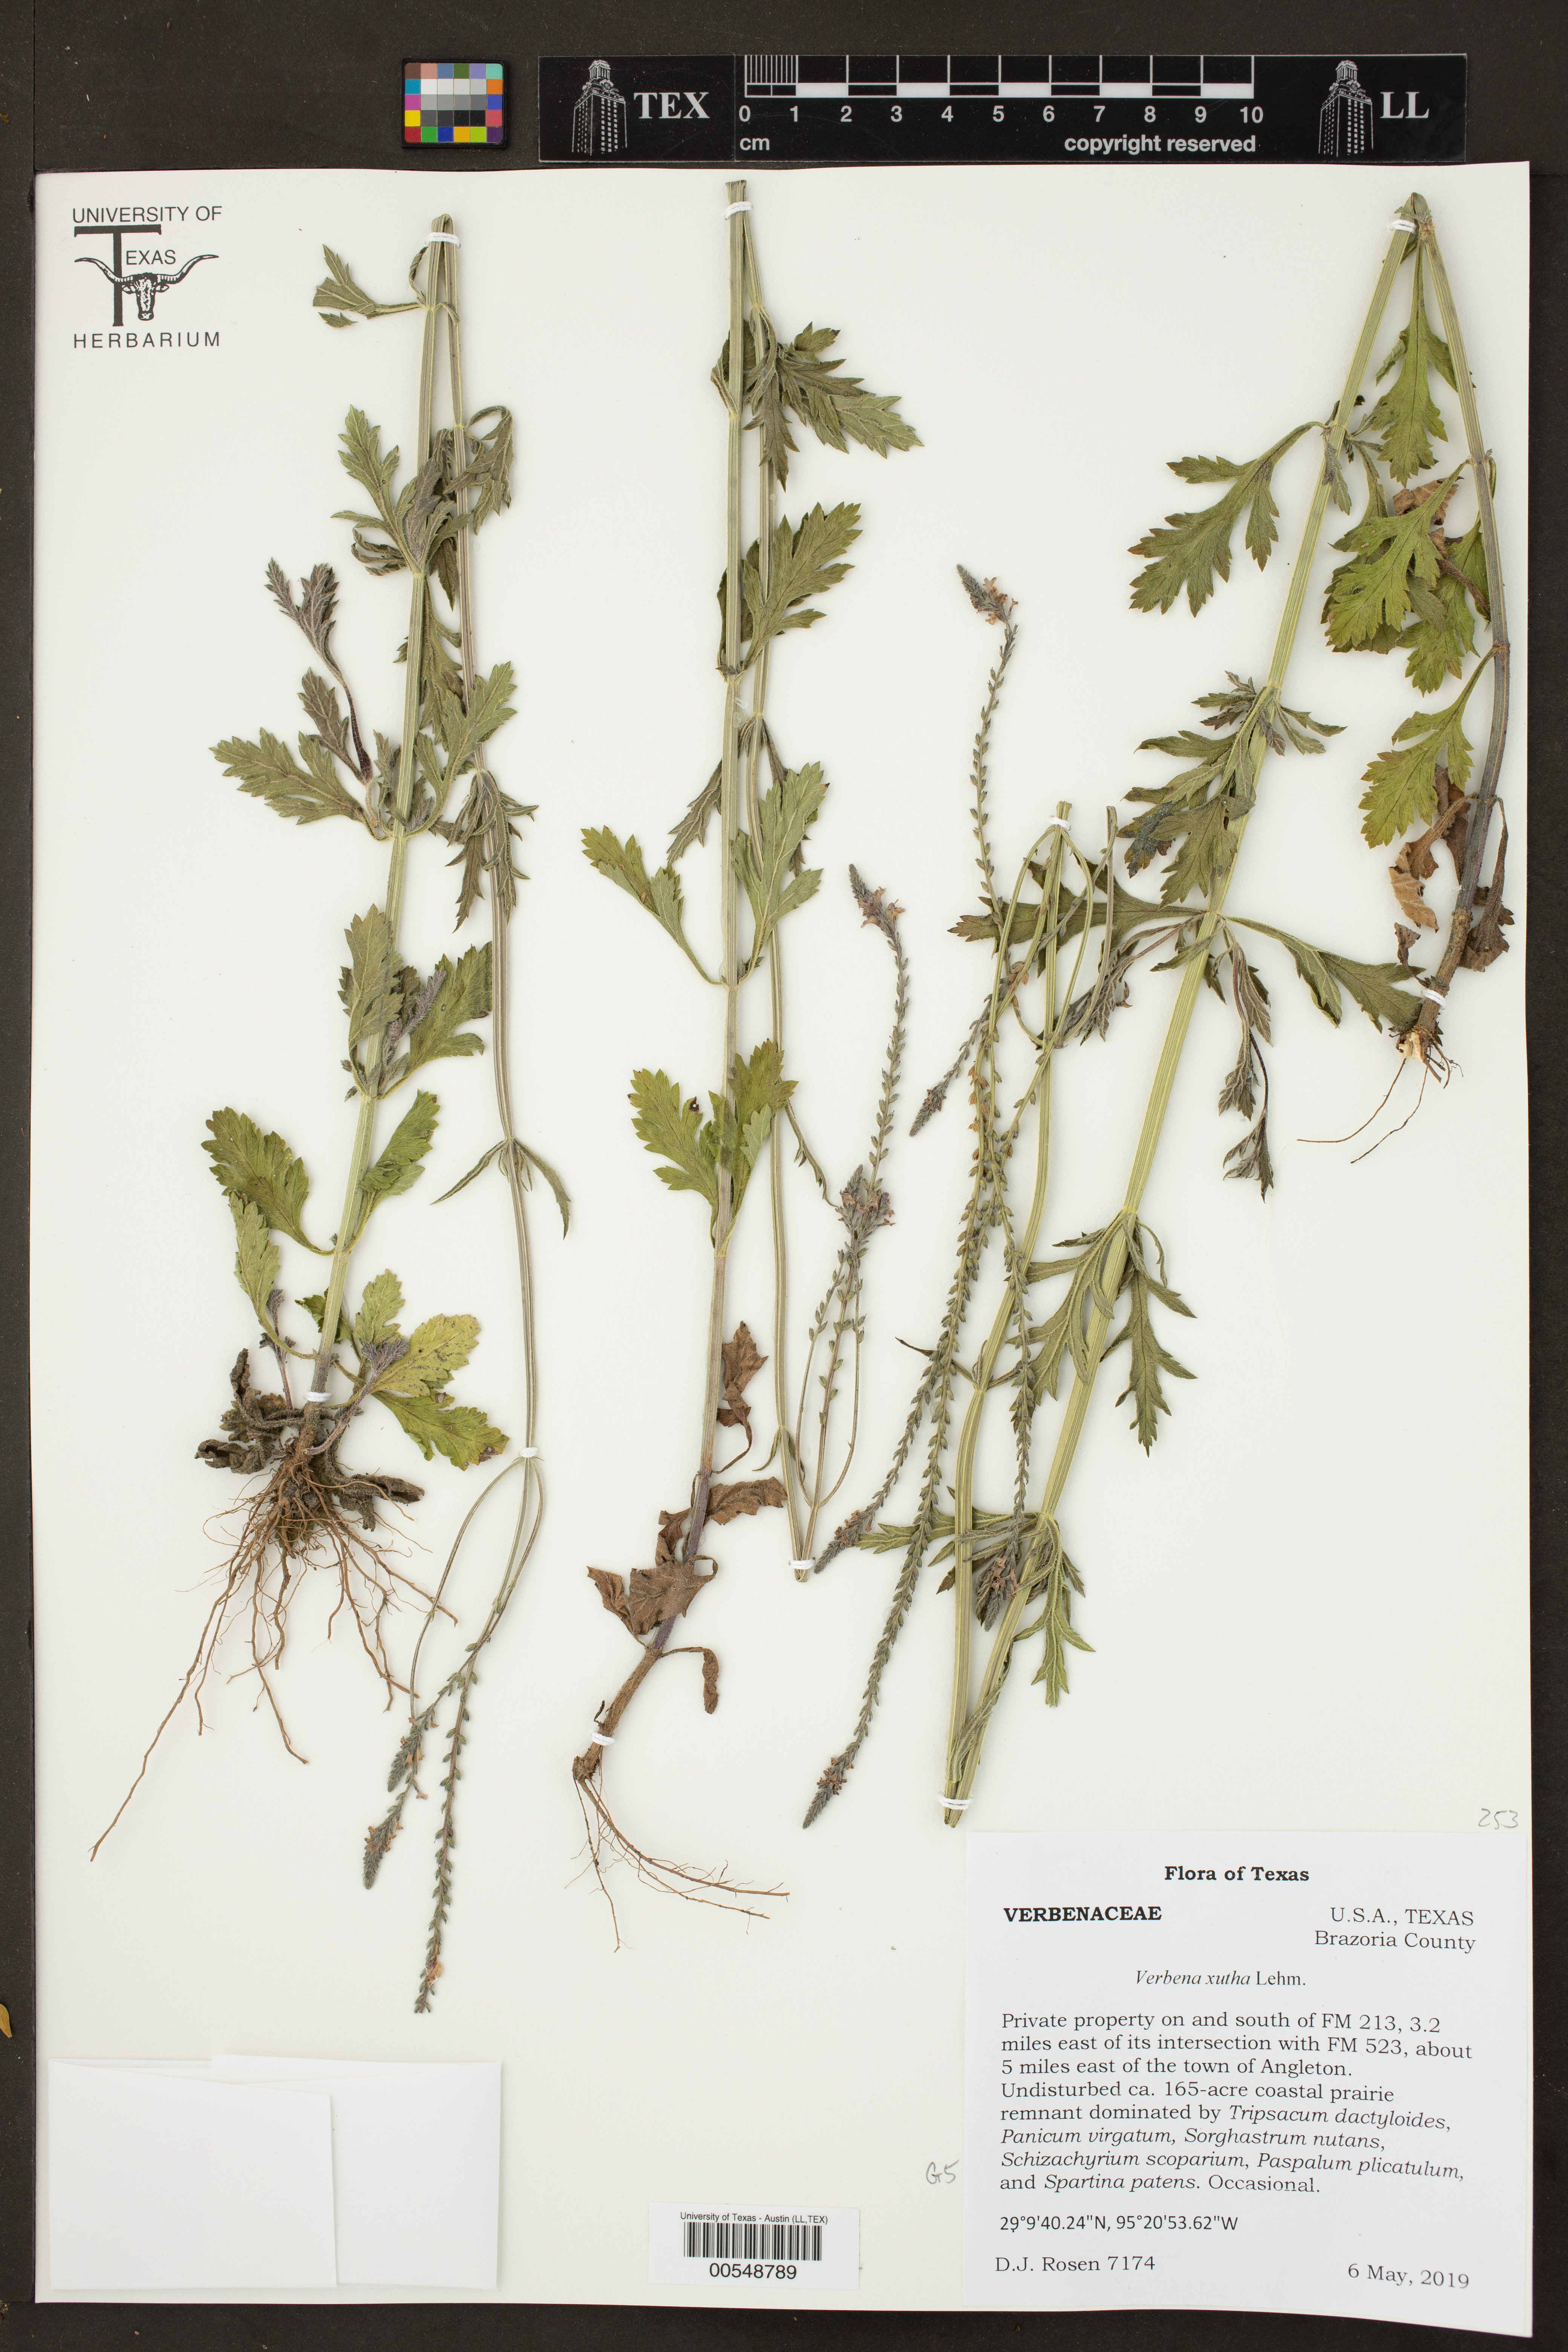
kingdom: Plantae
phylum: Tracheophyta
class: Magnoliopsida
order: Lamiales
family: Verbenaceae
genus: Verbena
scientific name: Verbena xutha
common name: Gulf vervain
